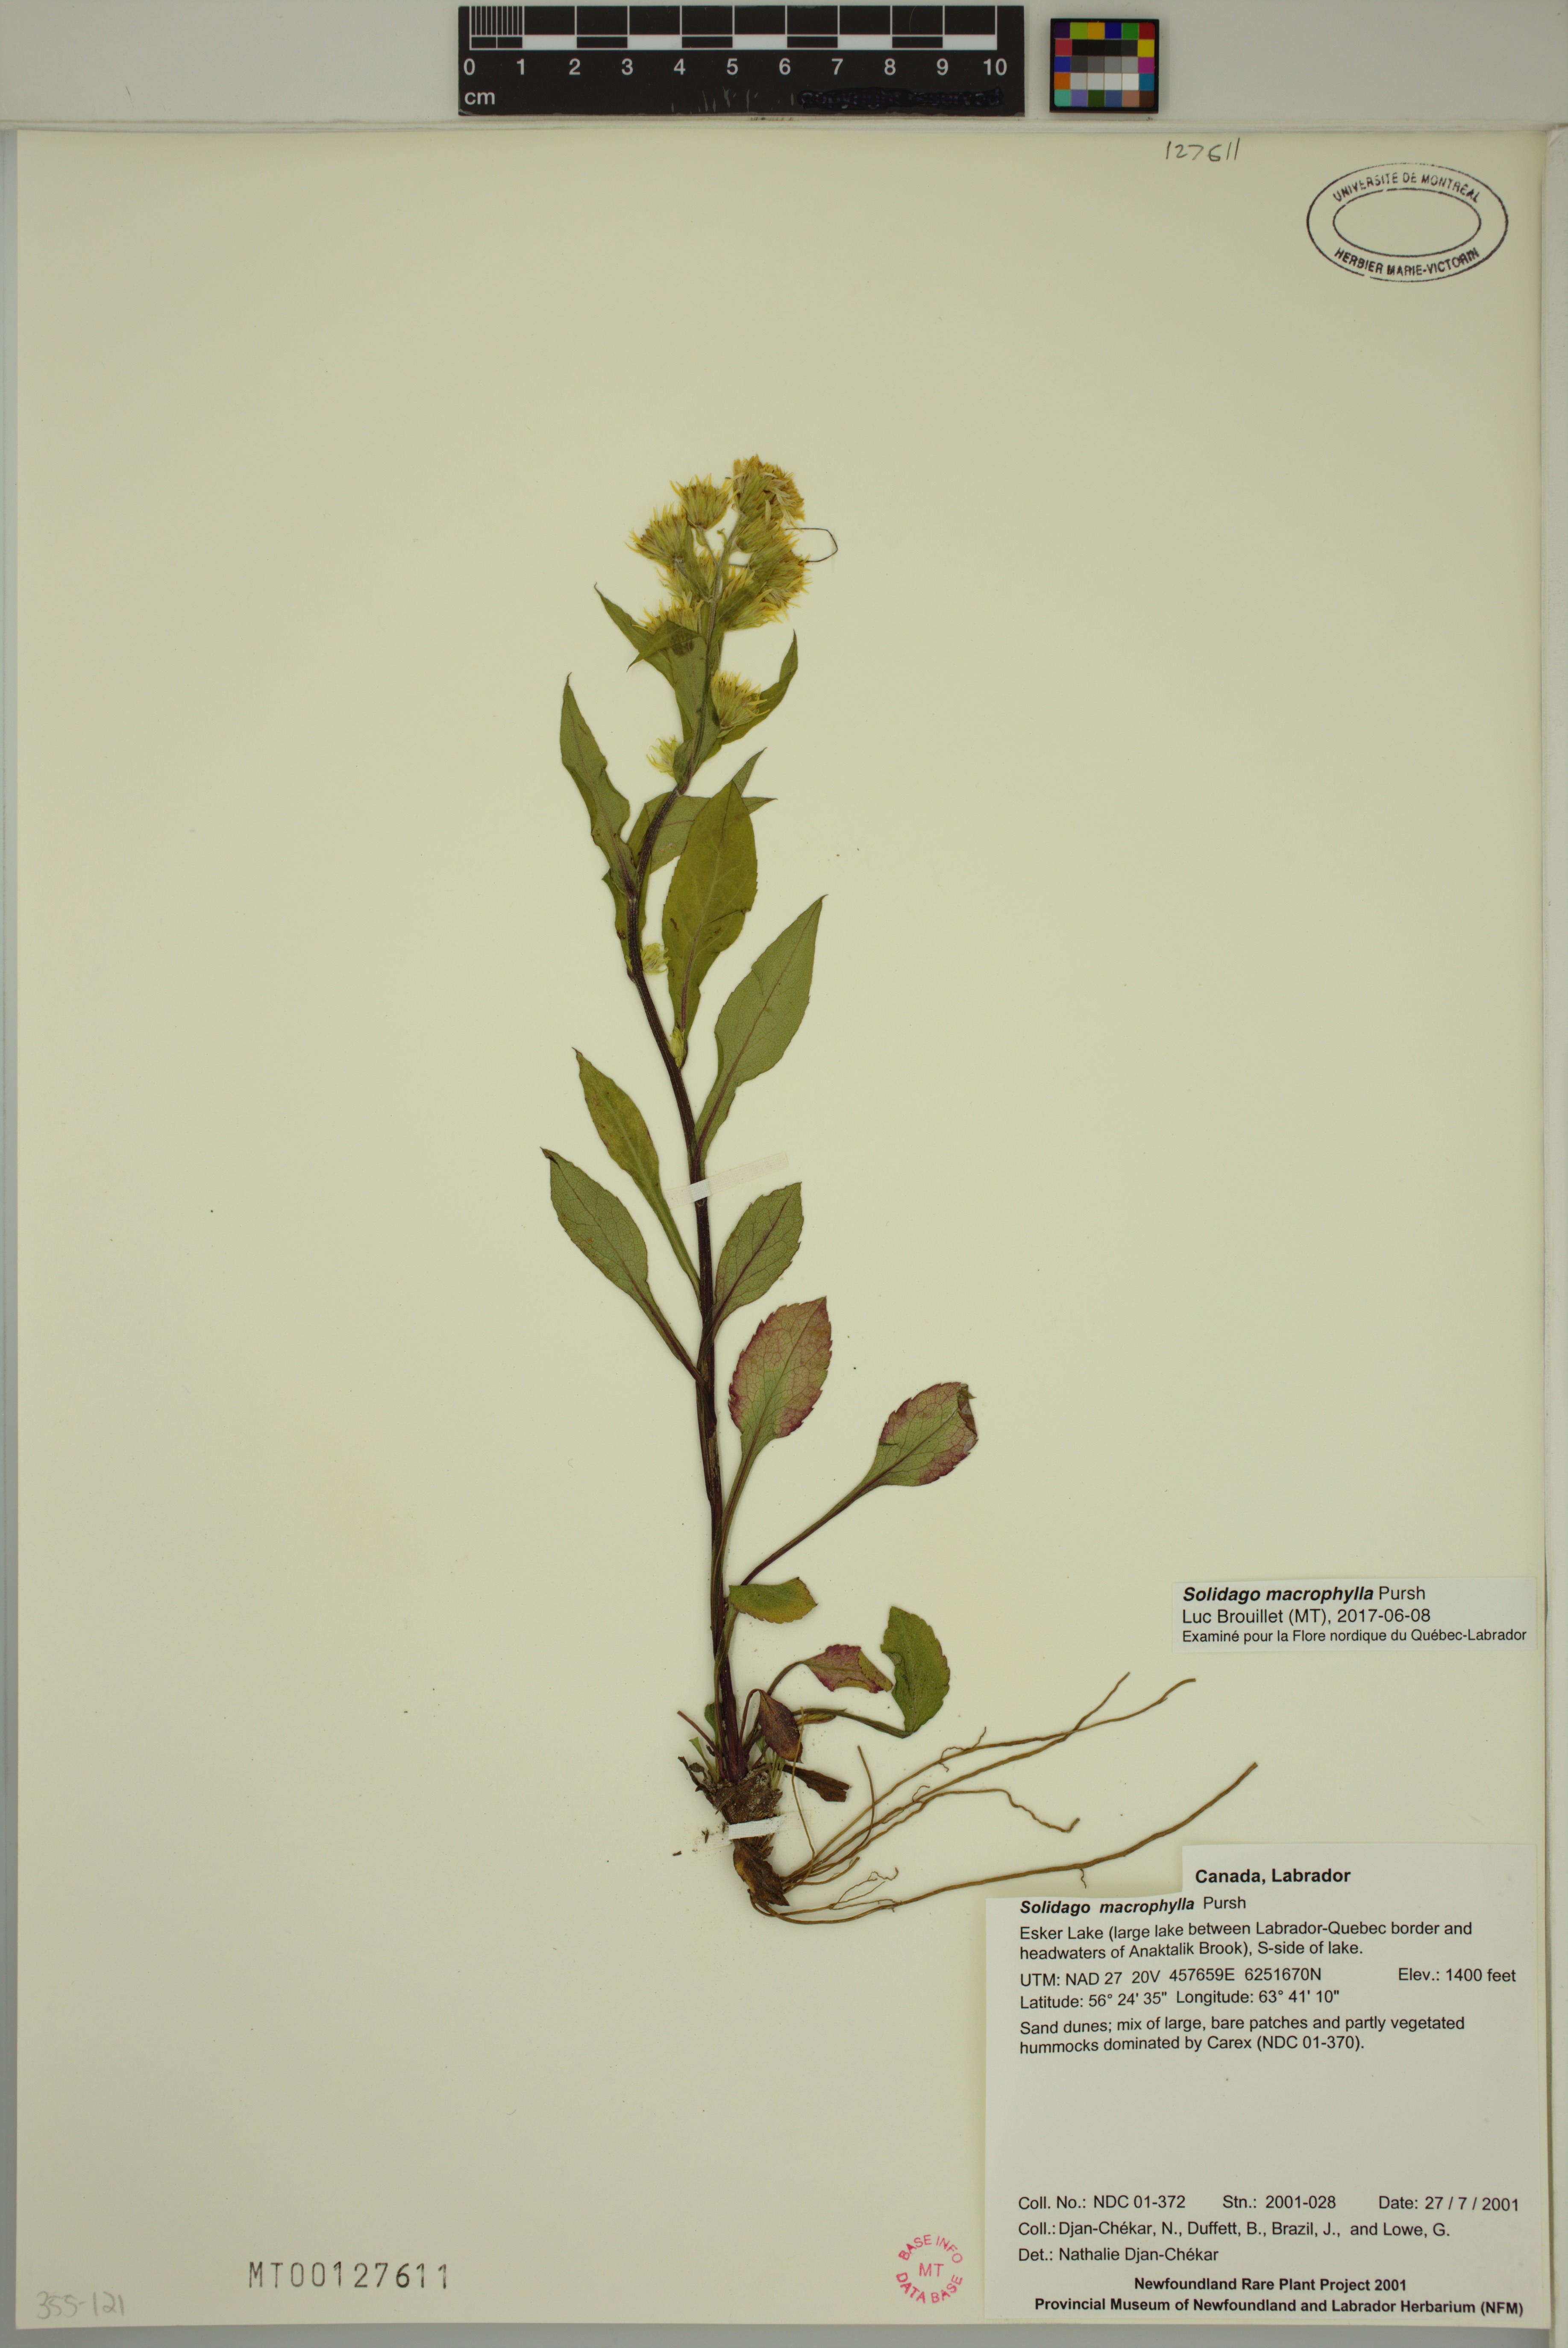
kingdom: Plantae
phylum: Tracheophyta
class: Magnoliopsida
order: Asterales
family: Asteraceae
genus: Solidago
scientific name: Solidago macrophylla
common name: Large-leaved goldenrod
